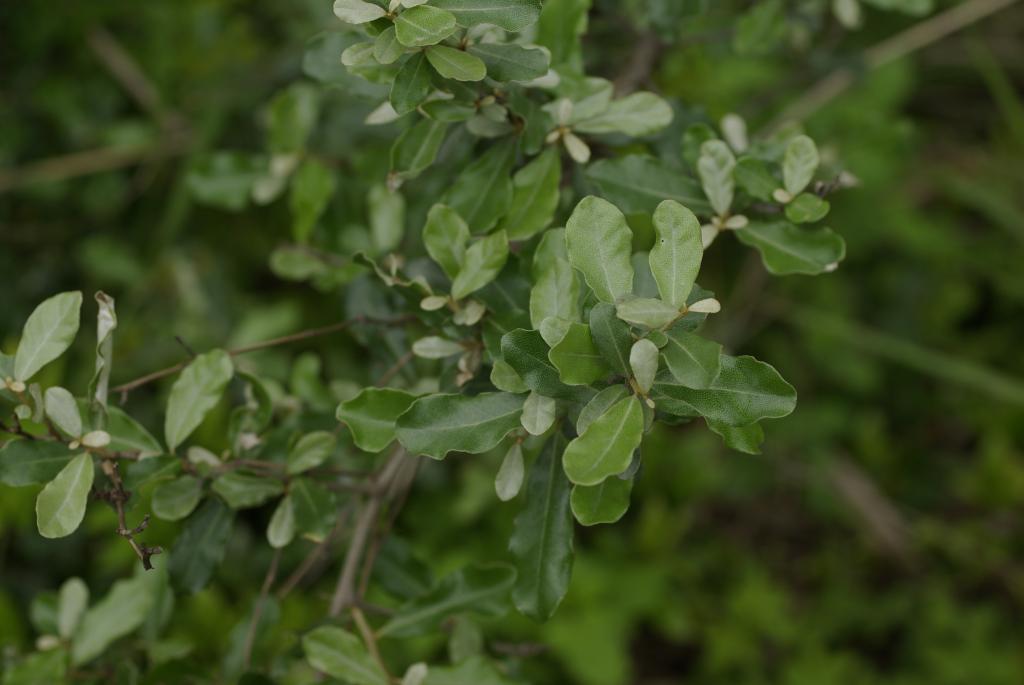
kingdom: Plantae
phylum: Tracheophyta
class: Magnoliopsida
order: Rosales
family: Elaeagnaceae
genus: Elaeagnus
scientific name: Elaeagnus oldhamii
